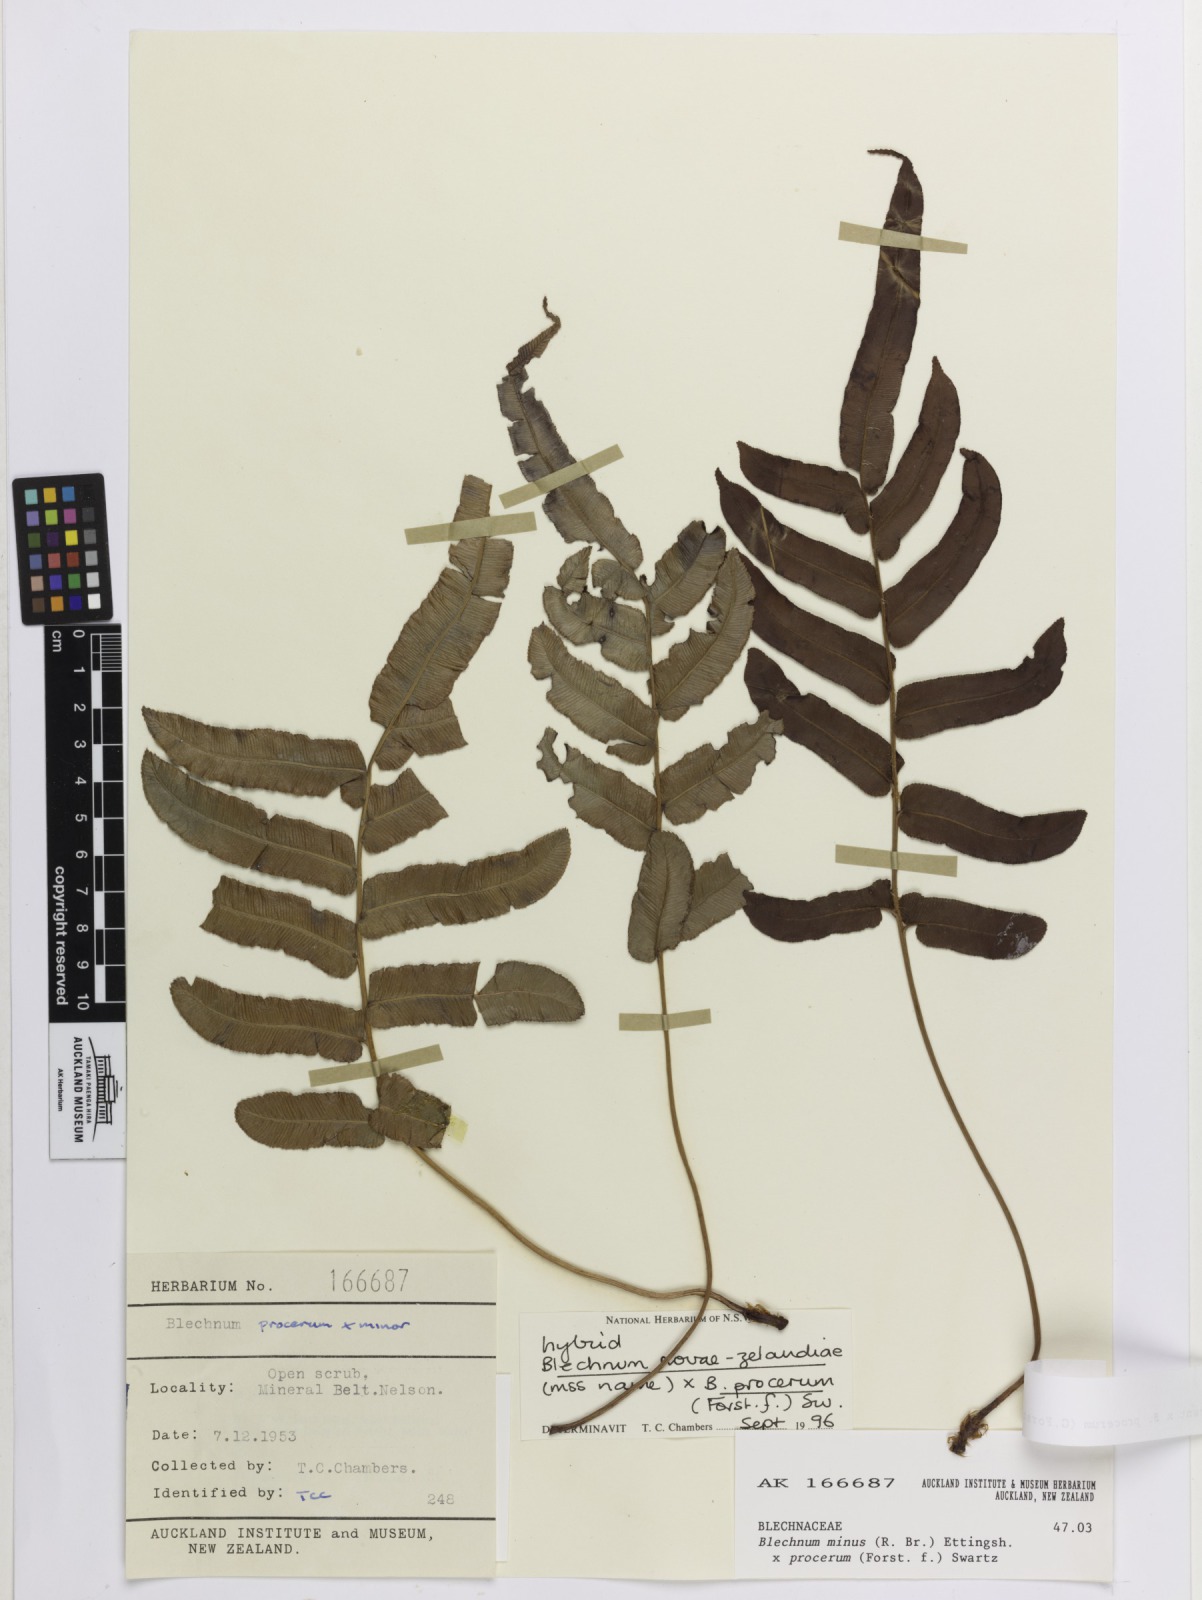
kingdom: Plantae
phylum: Tracheophyta
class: Polypodiopsida
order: Polypodiales
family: Blechnaceae
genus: Blechnum
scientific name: Blechnum
